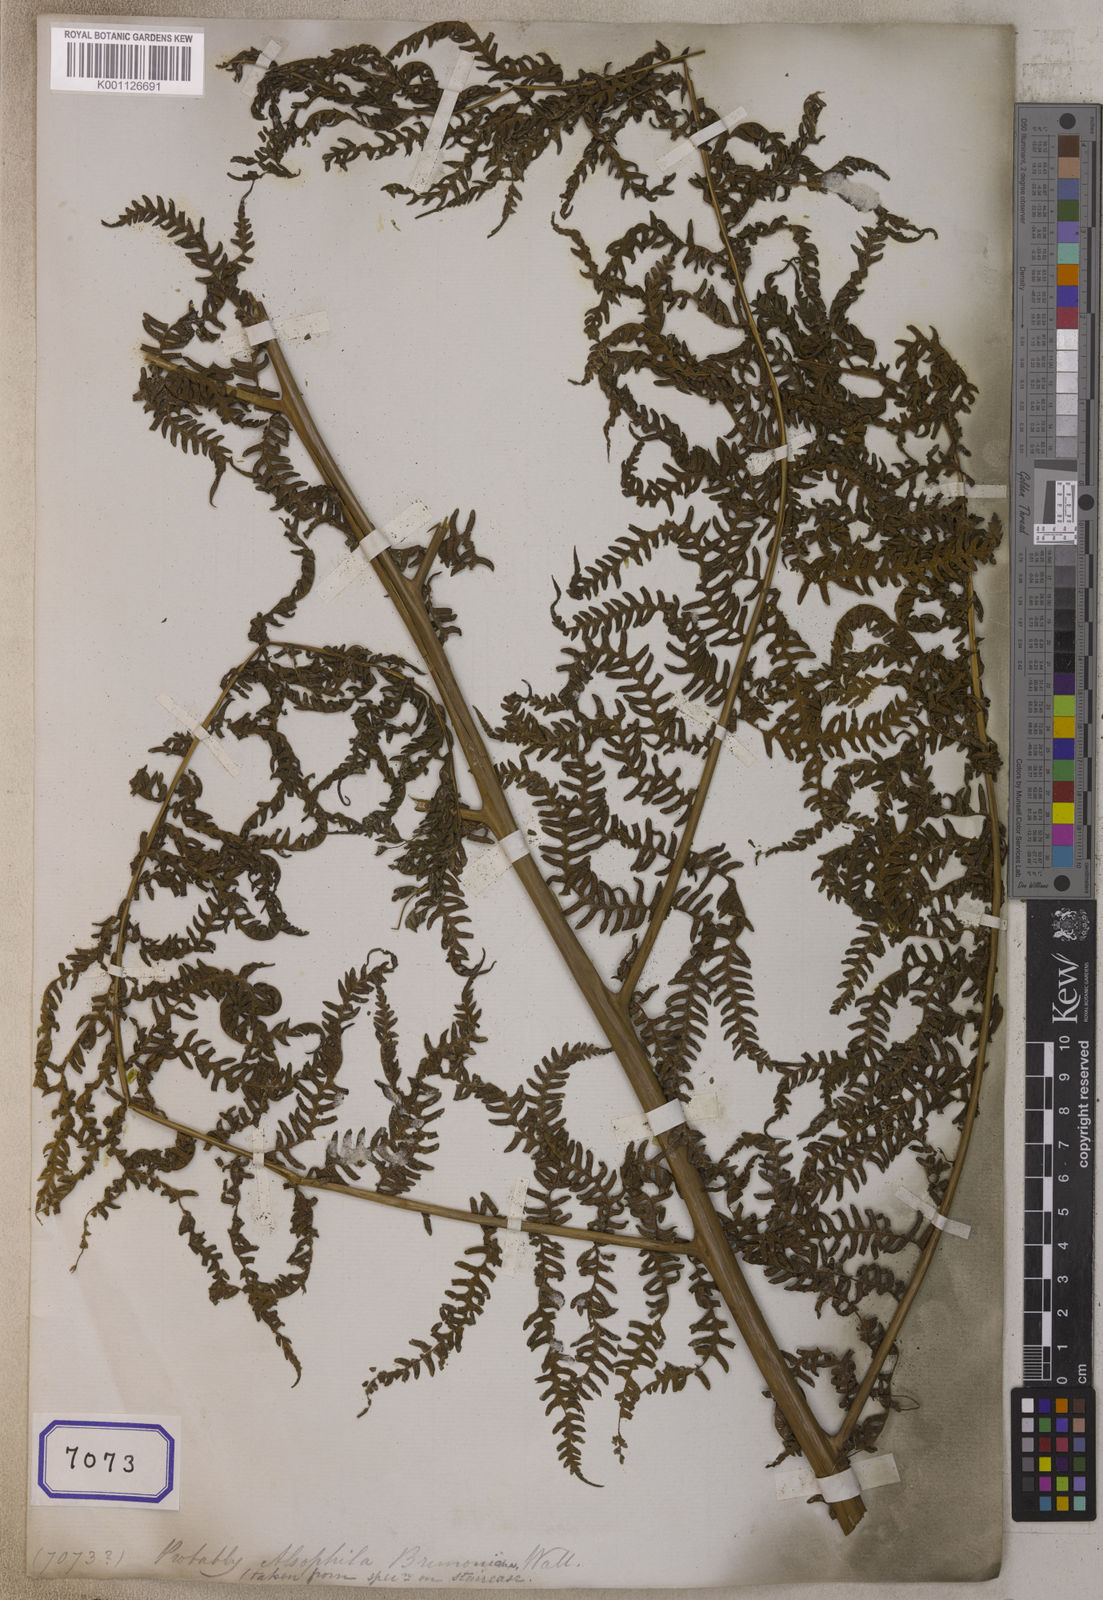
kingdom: Plantae
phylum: Tracheophyta
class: Polypodiopsida
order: Cyatheales
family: Cyatheaceae
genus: Sphaeropteris
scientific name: Sphaeropteris brunoniana
